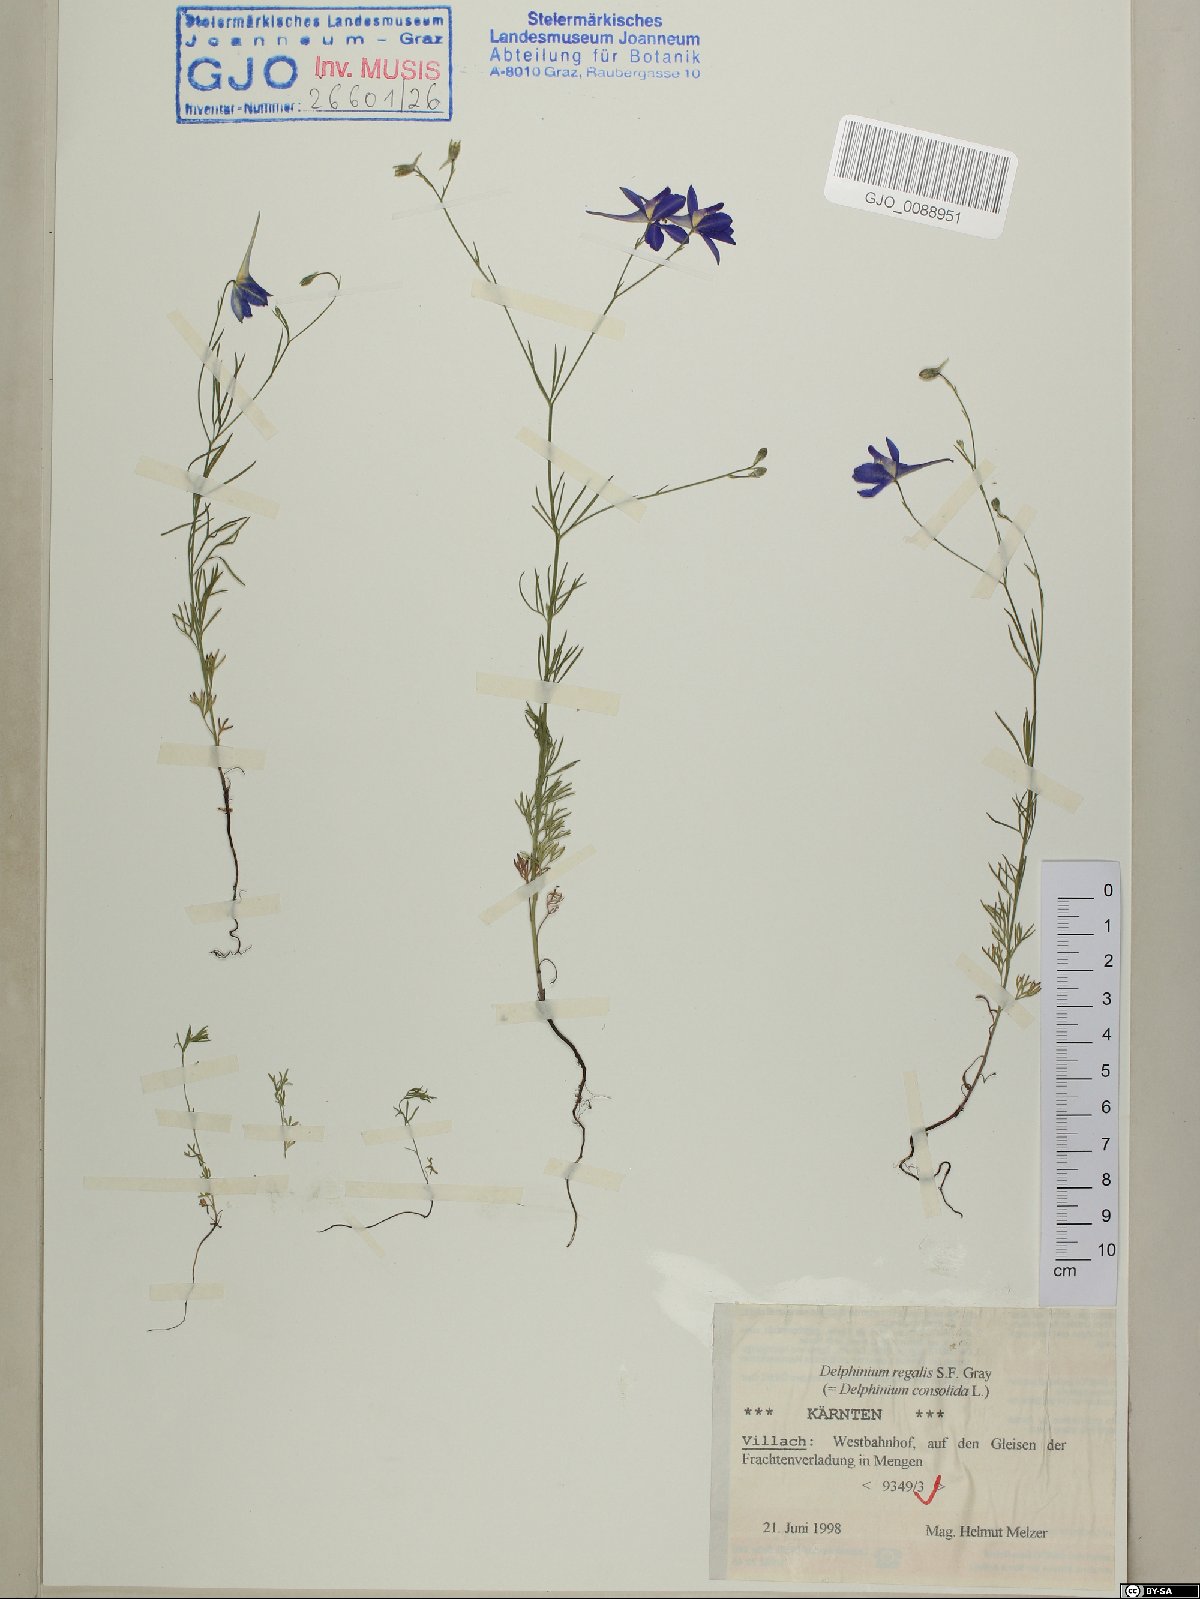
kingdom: Plantae
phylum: Tracheophyta
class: Magnoliopsida
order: Ranunculales
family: Ranunculaceae
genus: Delphinium
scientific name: Delphinium consolida
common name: Branching larkspur
